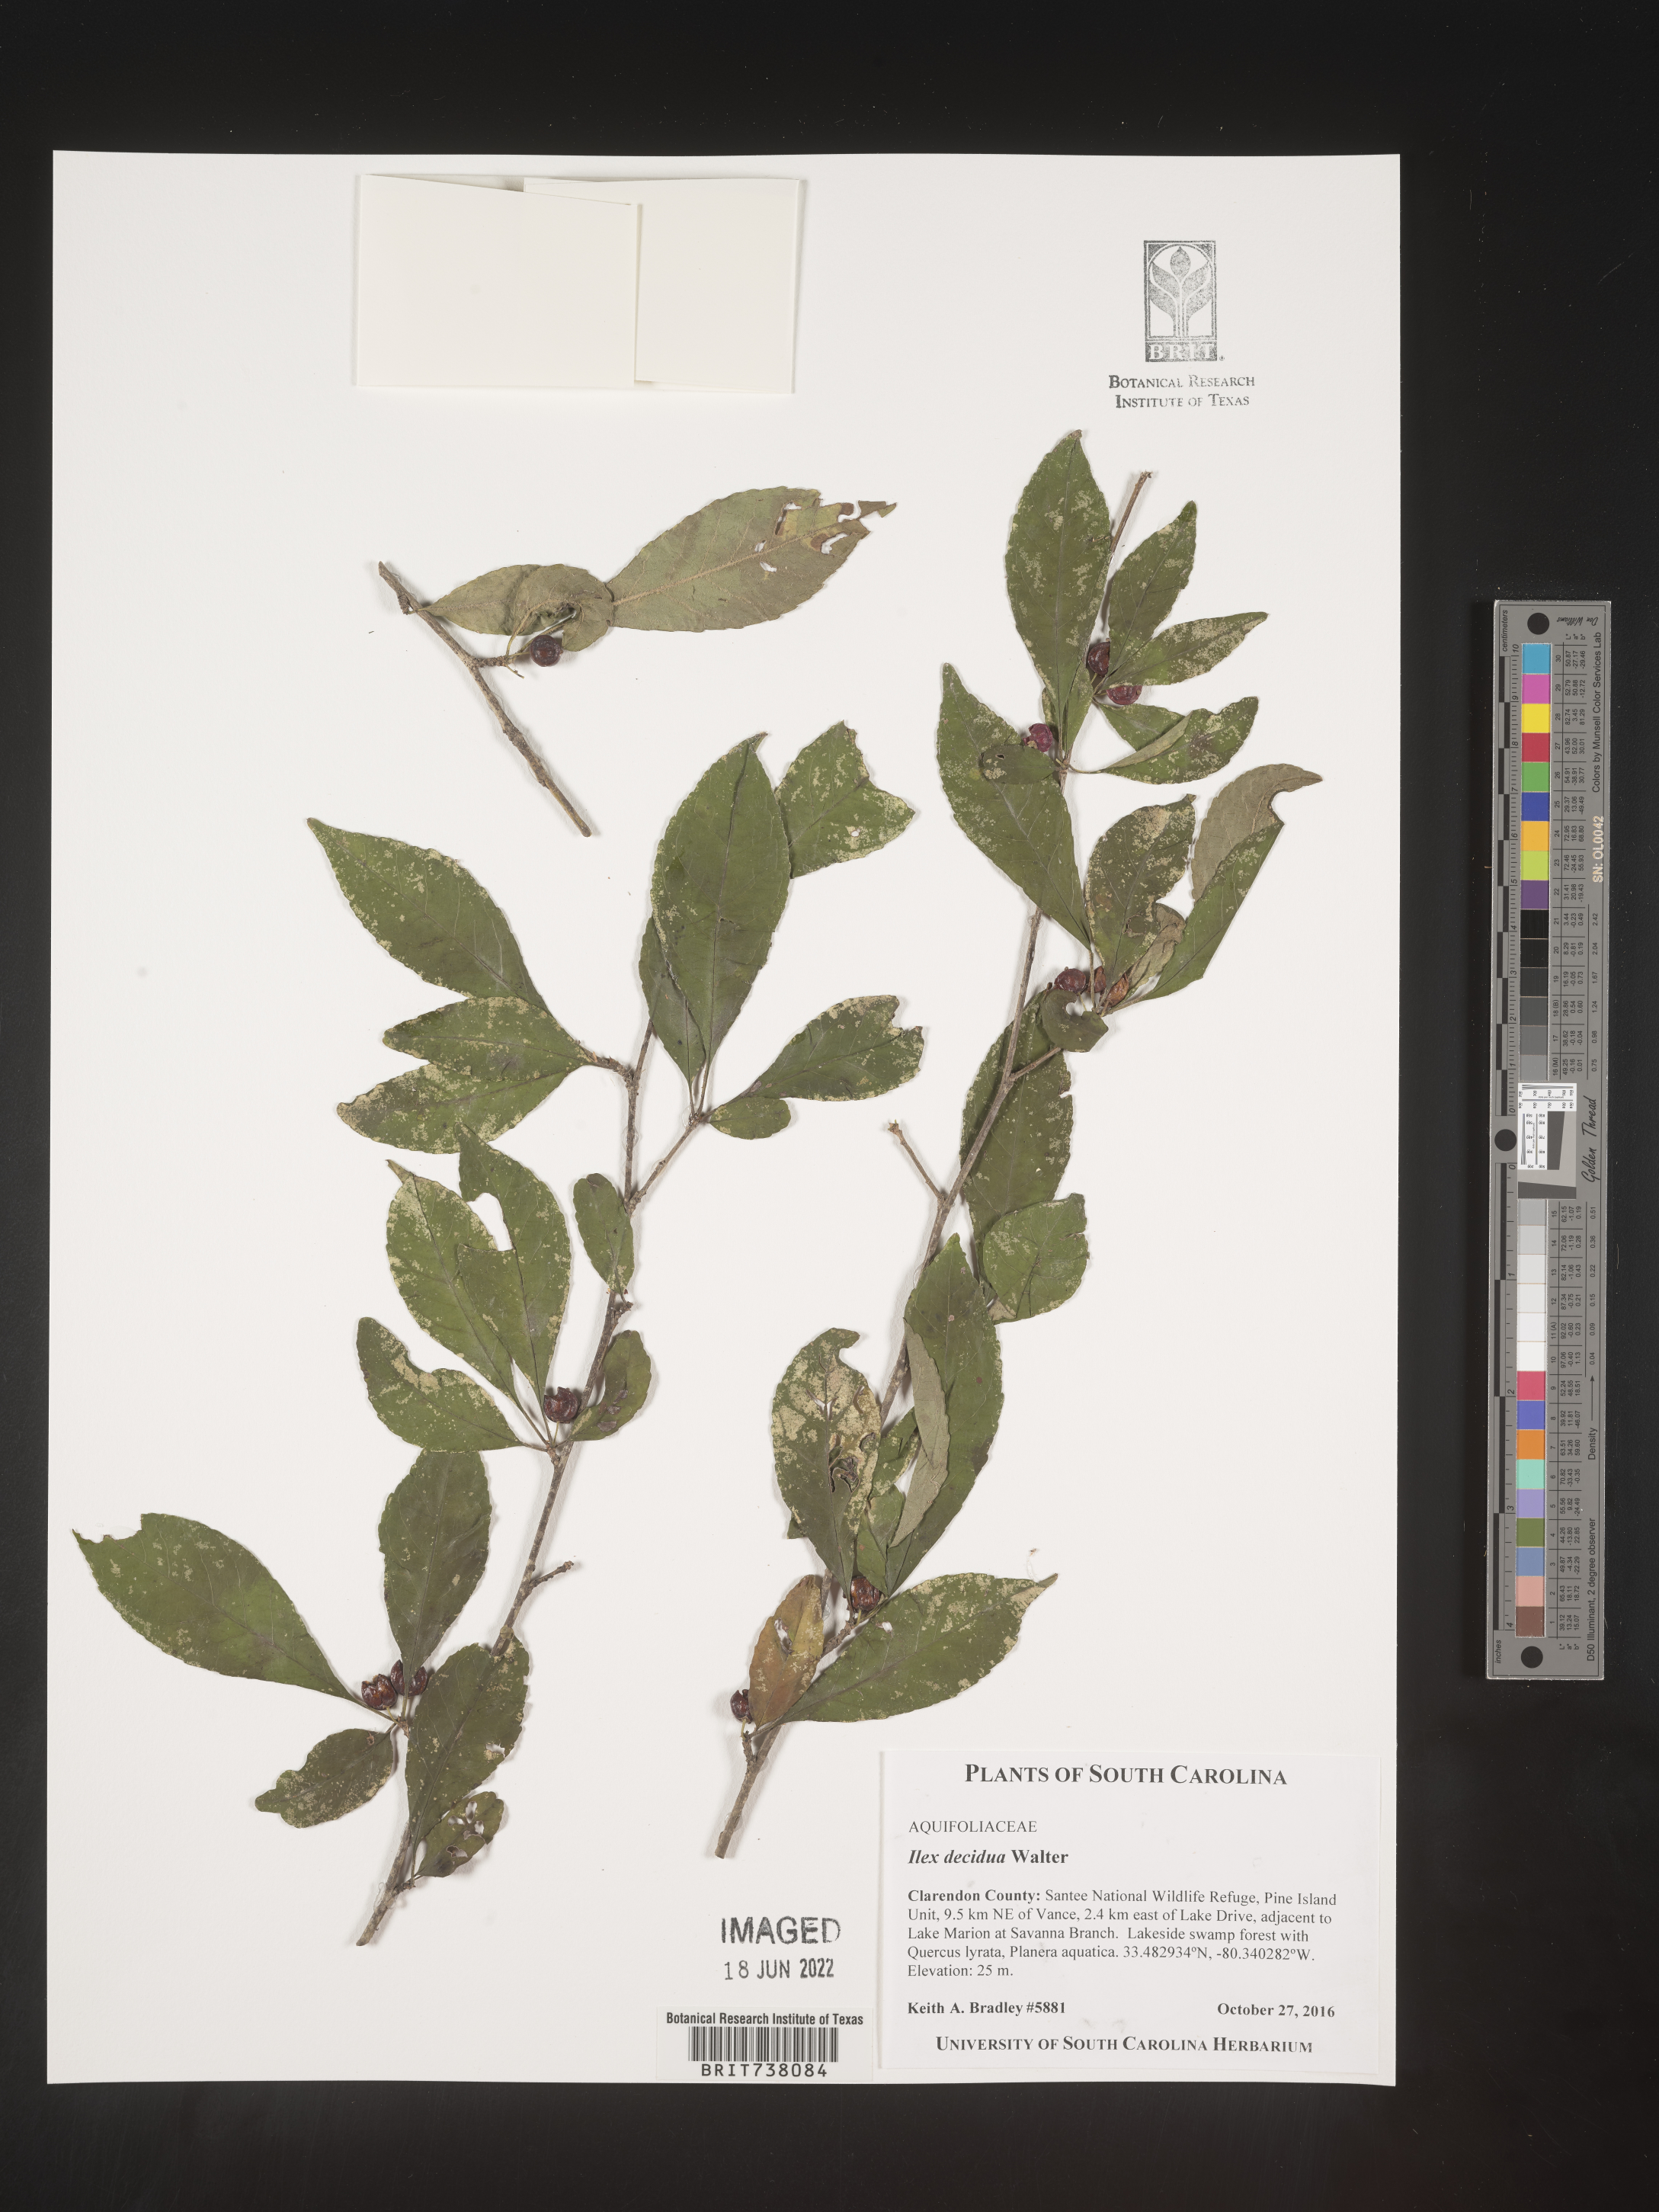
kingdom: Plantae
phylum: Tracheophyta
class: Magnoliopsida
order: Aquifoliales
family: Aquifoliaceae
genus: Ilex
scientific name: Ilex
